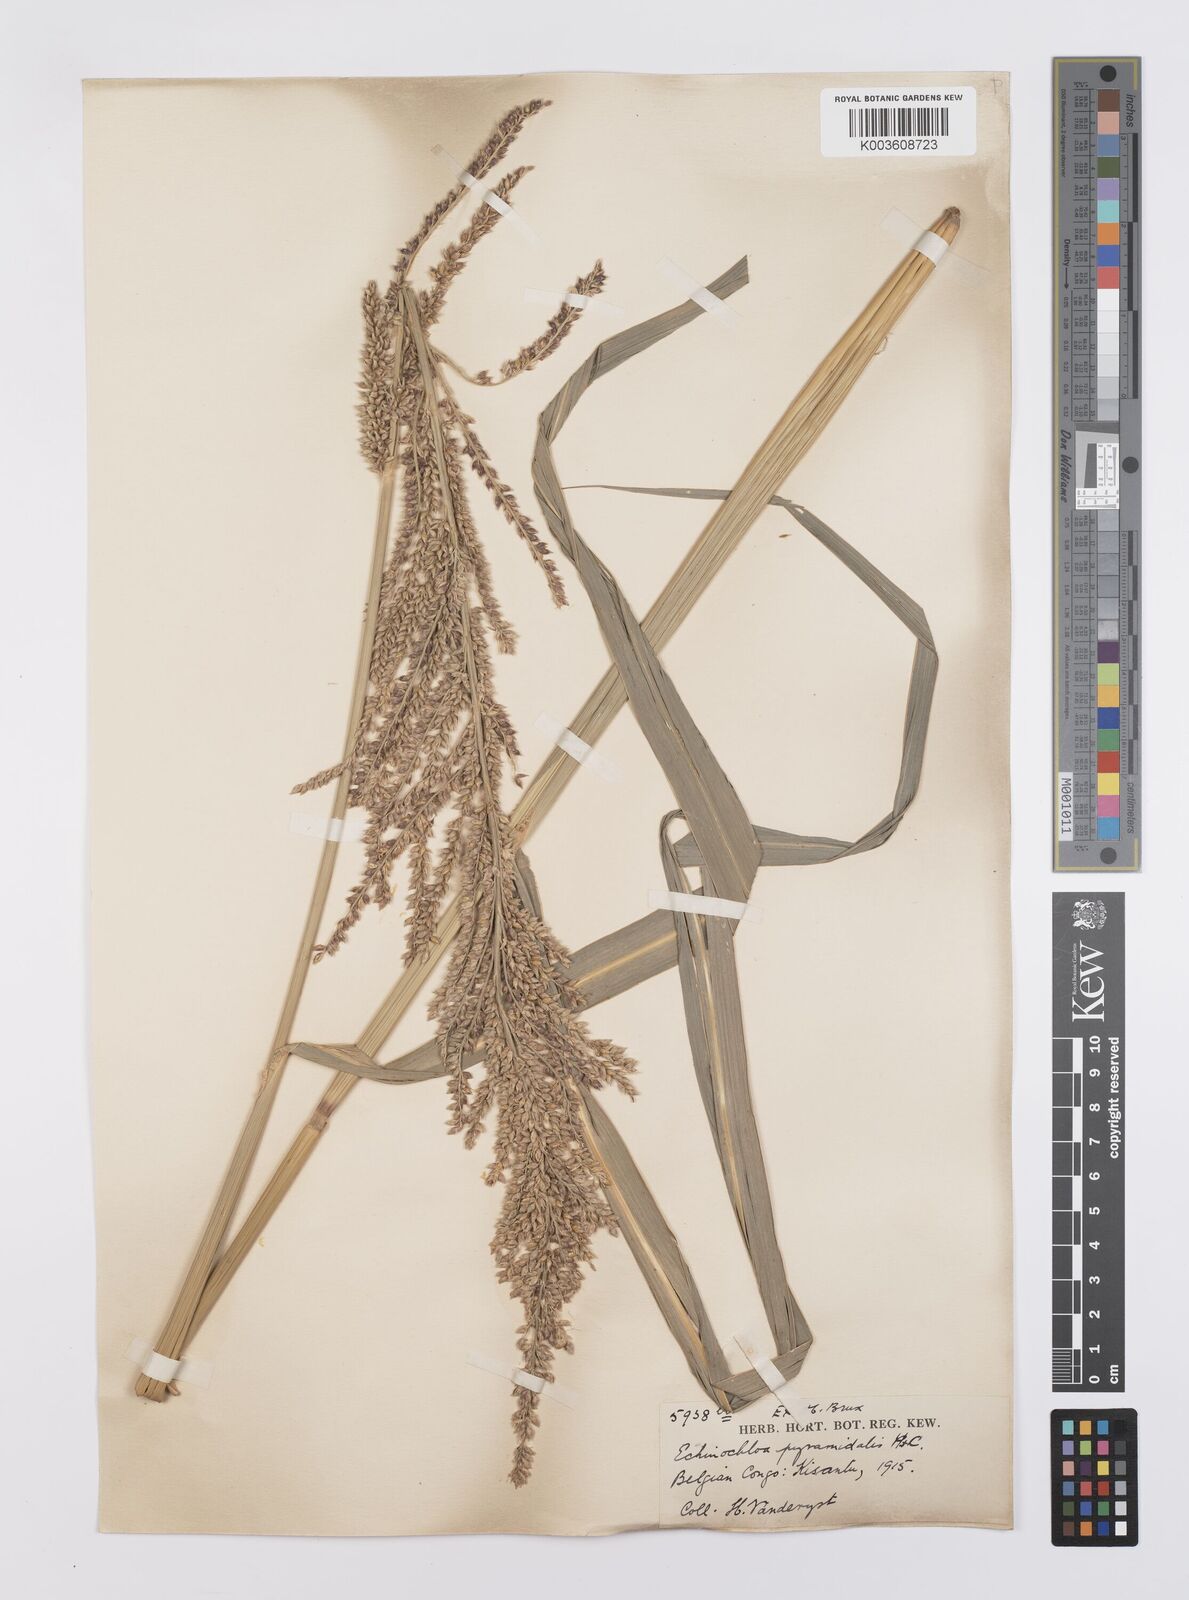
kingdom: Plantae
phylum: Tracheophyta
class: Liliopsida
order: Poales
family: Poaceae
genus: Echinochloa
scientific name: Echinochloa pyramidalis
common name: Antelope grass
